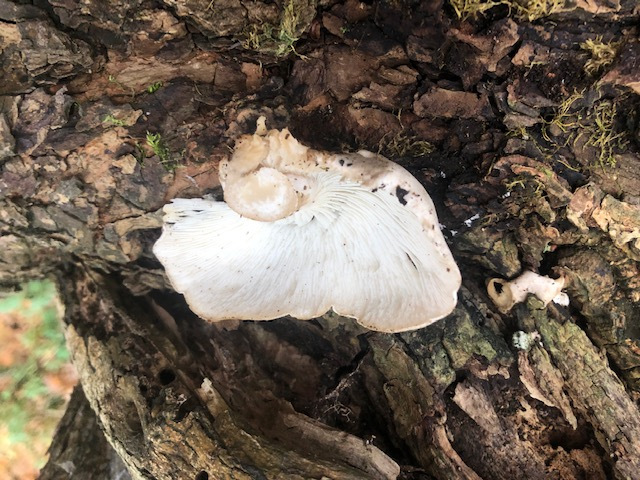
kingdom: Fungi
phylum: Basidiomycota
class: Agaricomycetes
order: Agaricales
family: Lyophyllaceae
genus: Ossicaulis
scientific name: Ossicaulis
